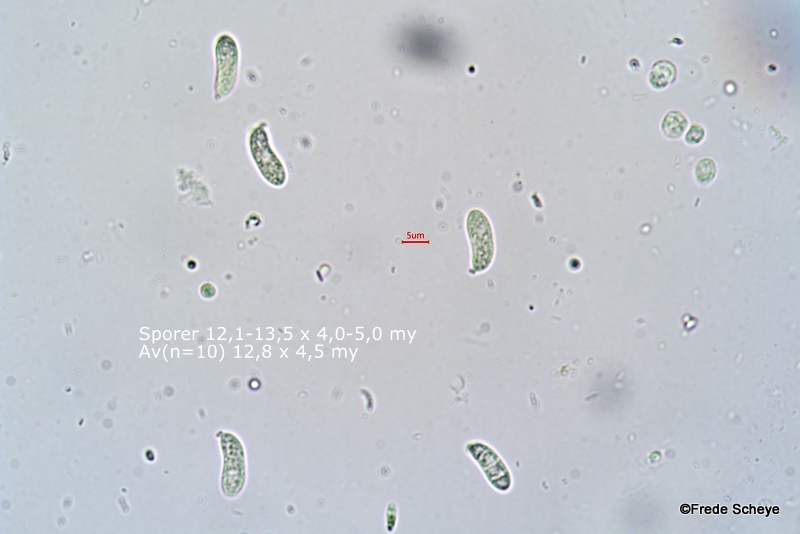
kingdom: Fungi
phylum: Basidiomycota
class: Dacrymycetes
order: Dacrymycetales
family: Dacrymycetaceae
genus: Dacrymyces
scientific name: Dacrymyces lacrymalis
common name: rynket tåresvamp
